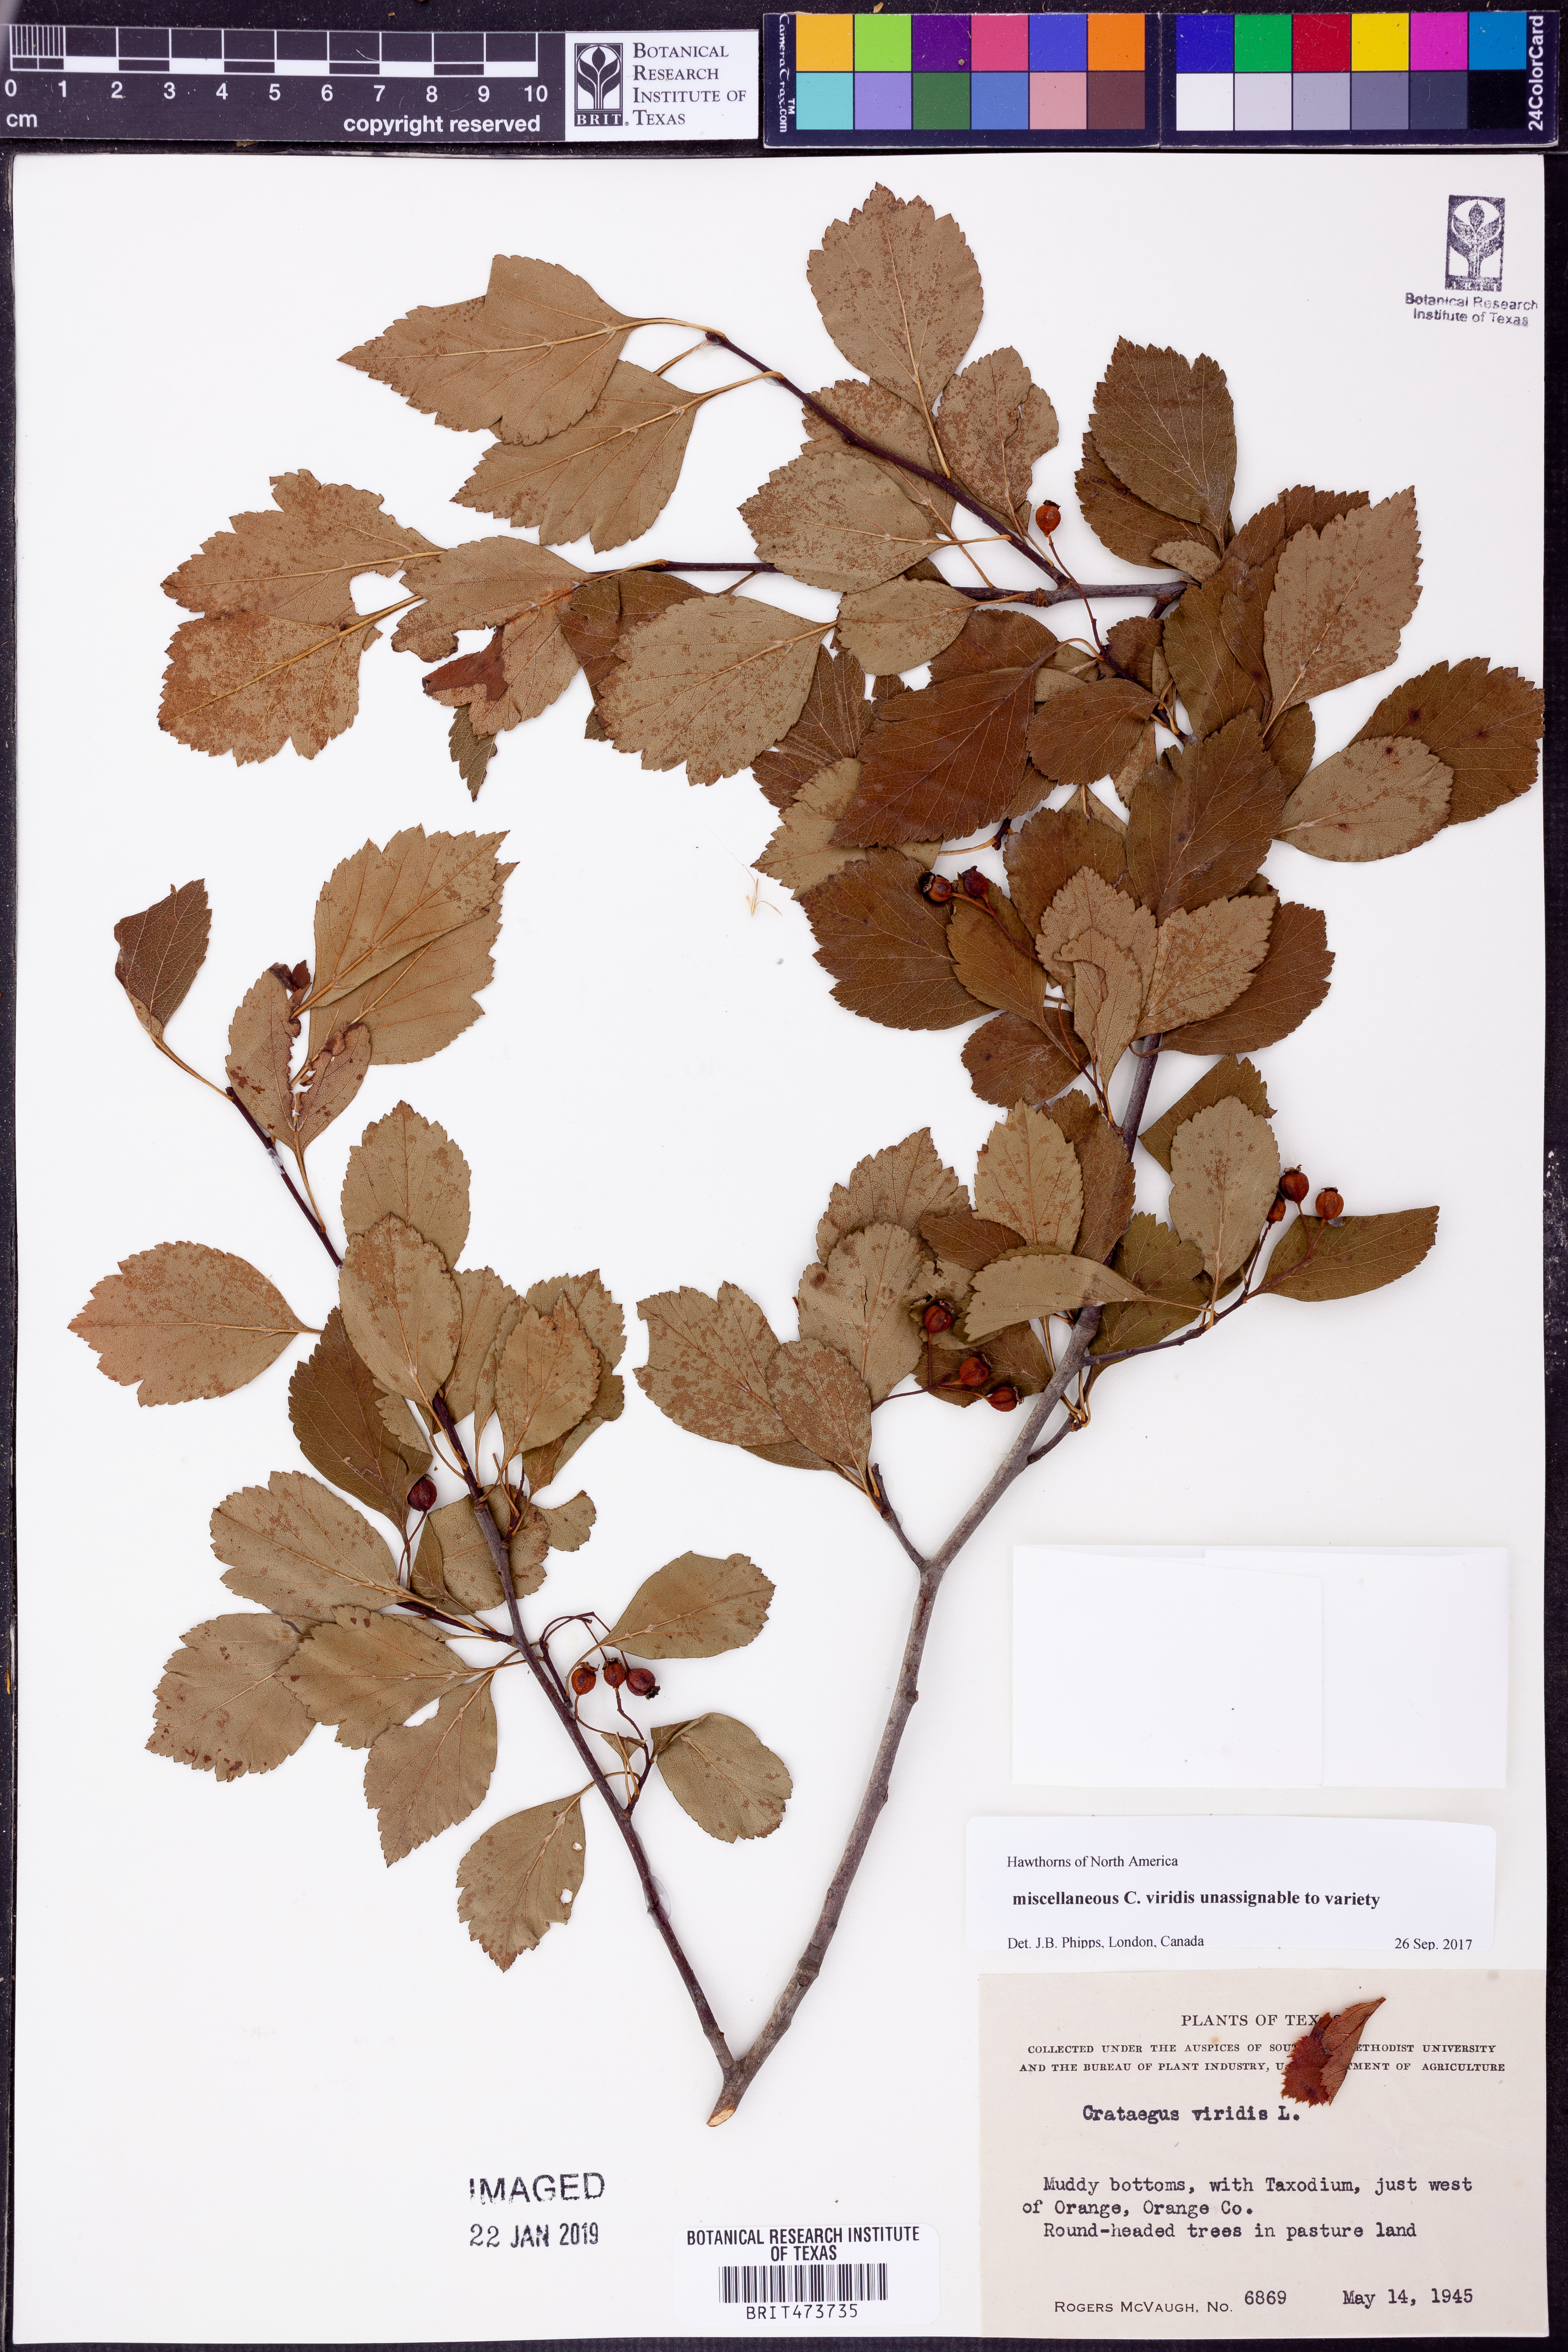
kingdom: Plantae
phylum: Tracheophyta
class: Magnoliopsida
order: Rosales
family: Rosaceae
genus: Crataegus
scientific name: Crataegus viridis
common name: Southernthorn
